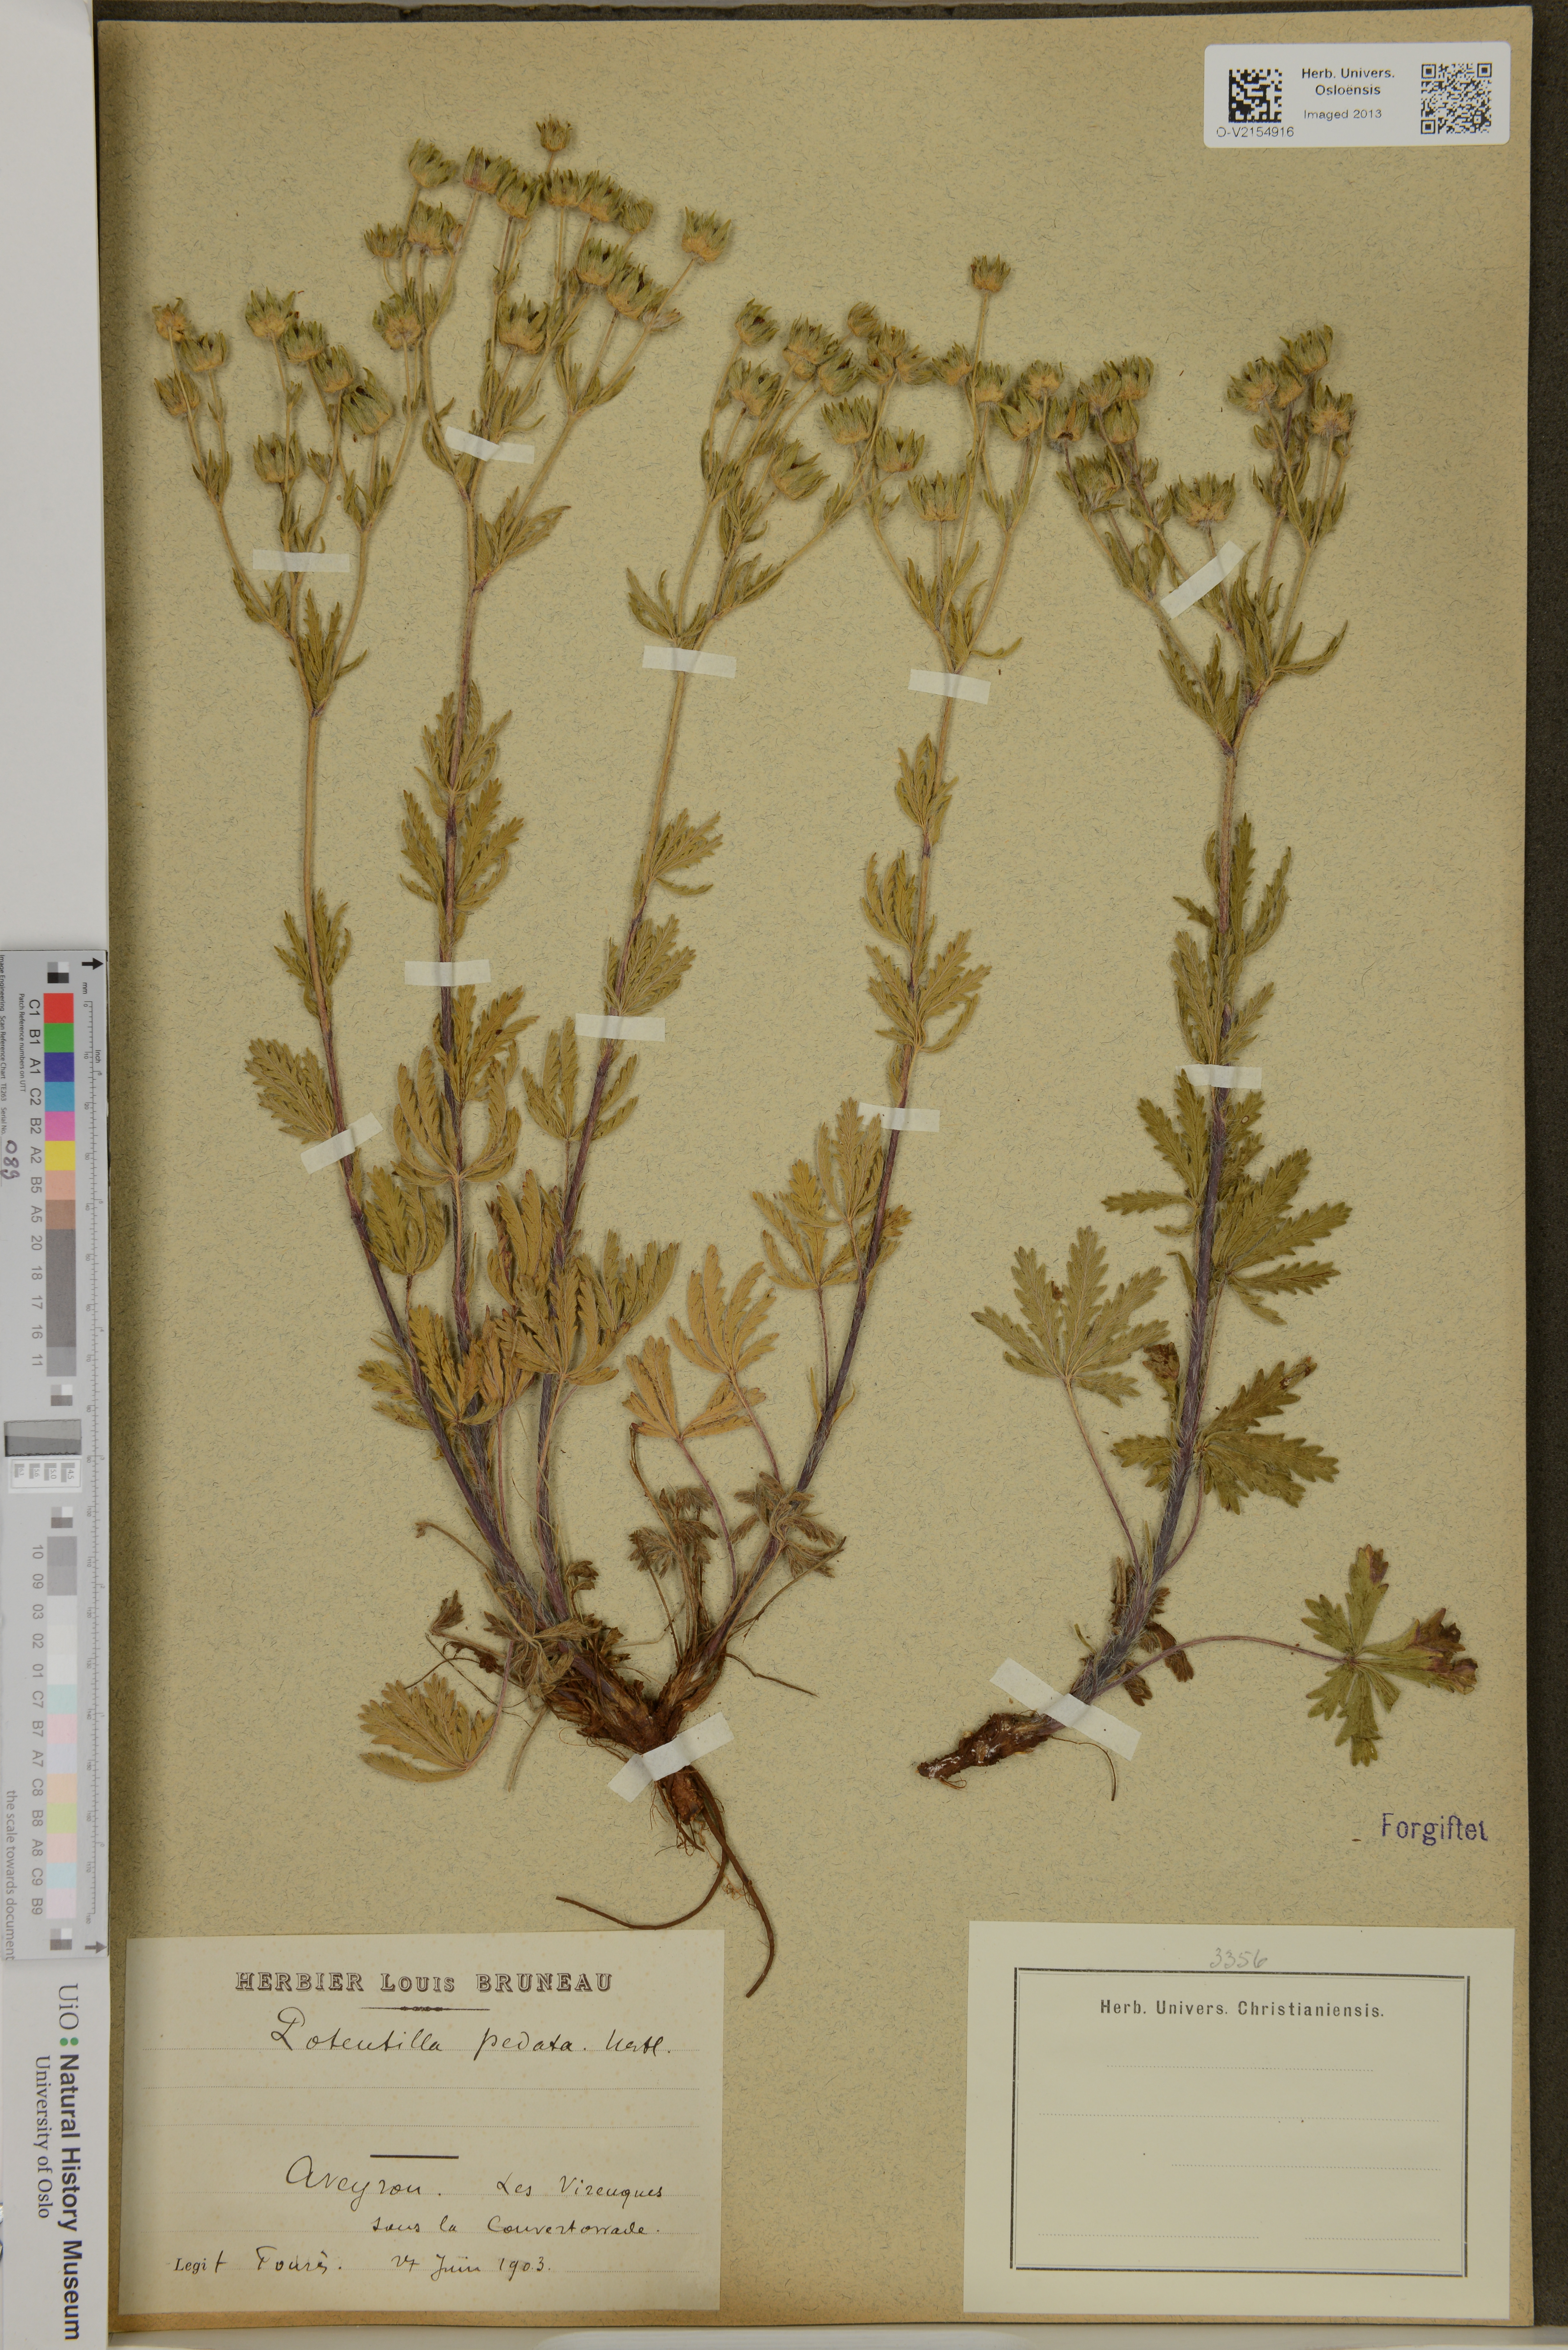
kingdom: Plantae
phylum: Tracheophyta
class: Magnoliopsida
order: Rosales
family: Rosaceae
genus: Potentilla
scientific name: Potentilla pedata
